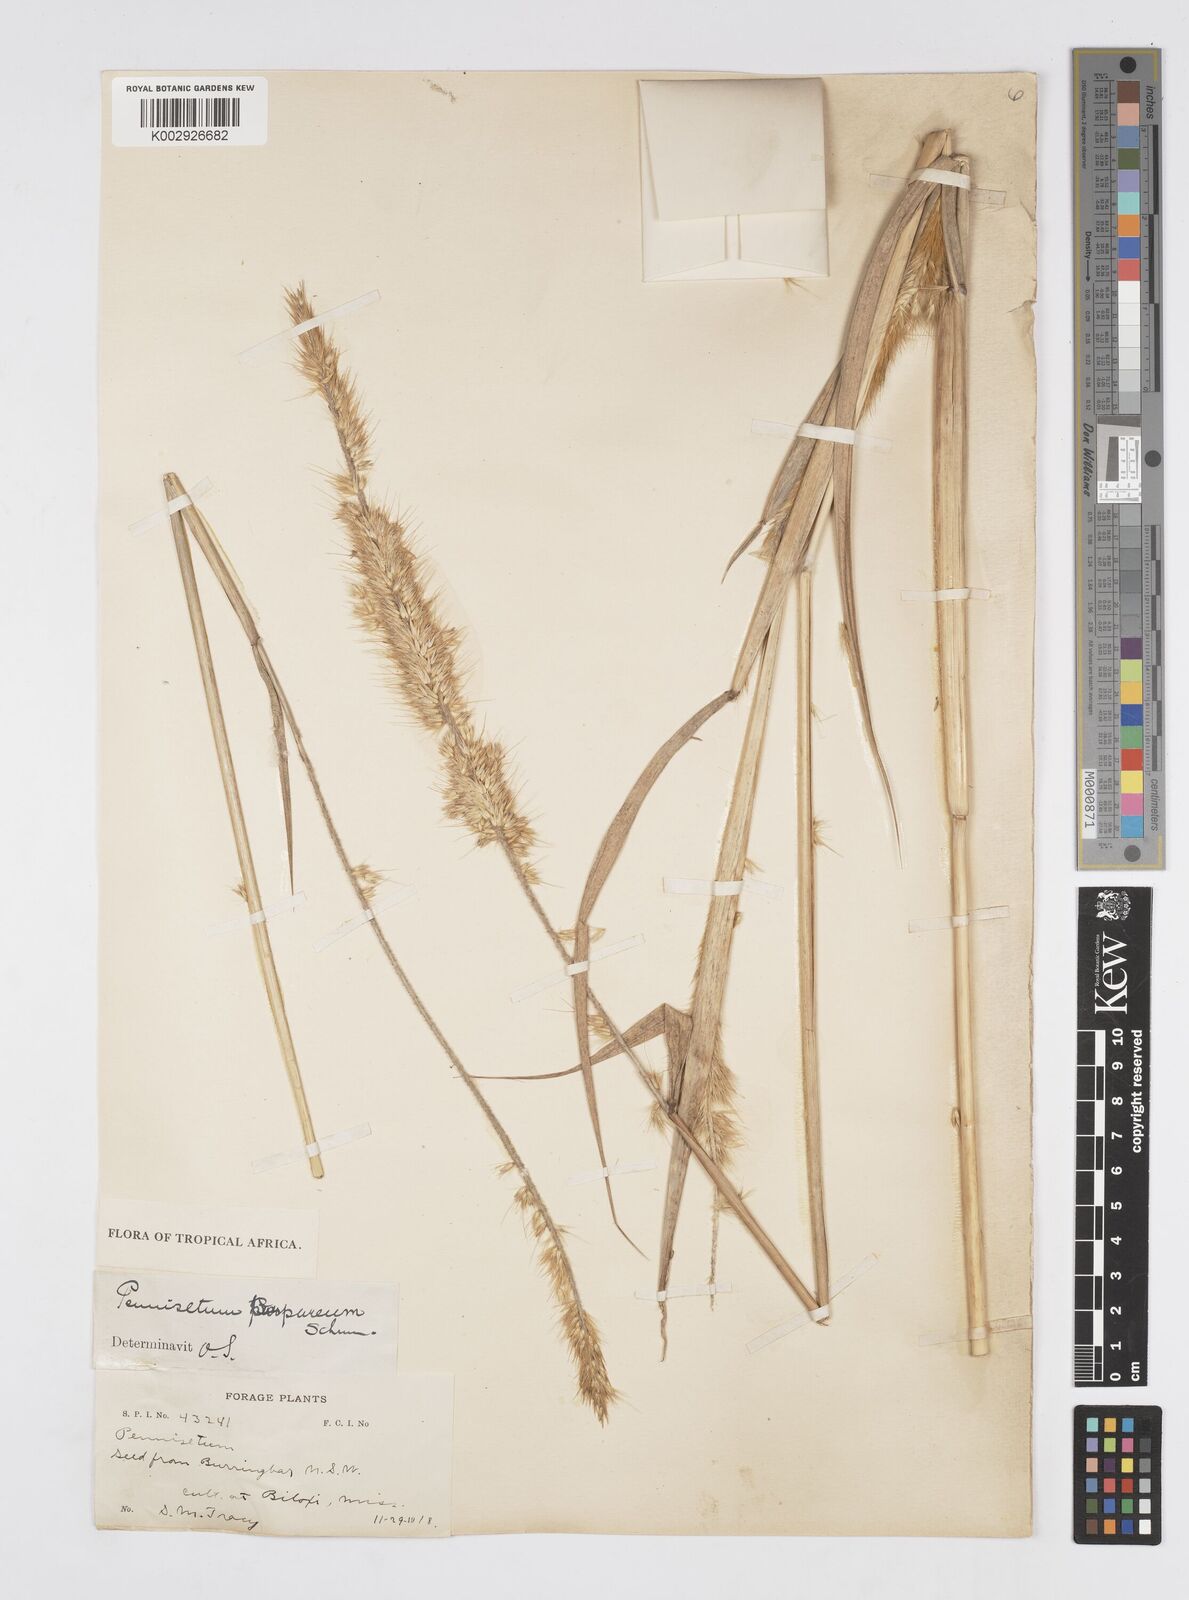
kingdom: Plantae
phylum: Tracheophyta
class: Liliopsida
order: Poales
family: Poaceae
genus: Cenchrus
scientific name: Cenchrus purpureus
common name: Elephant grass
